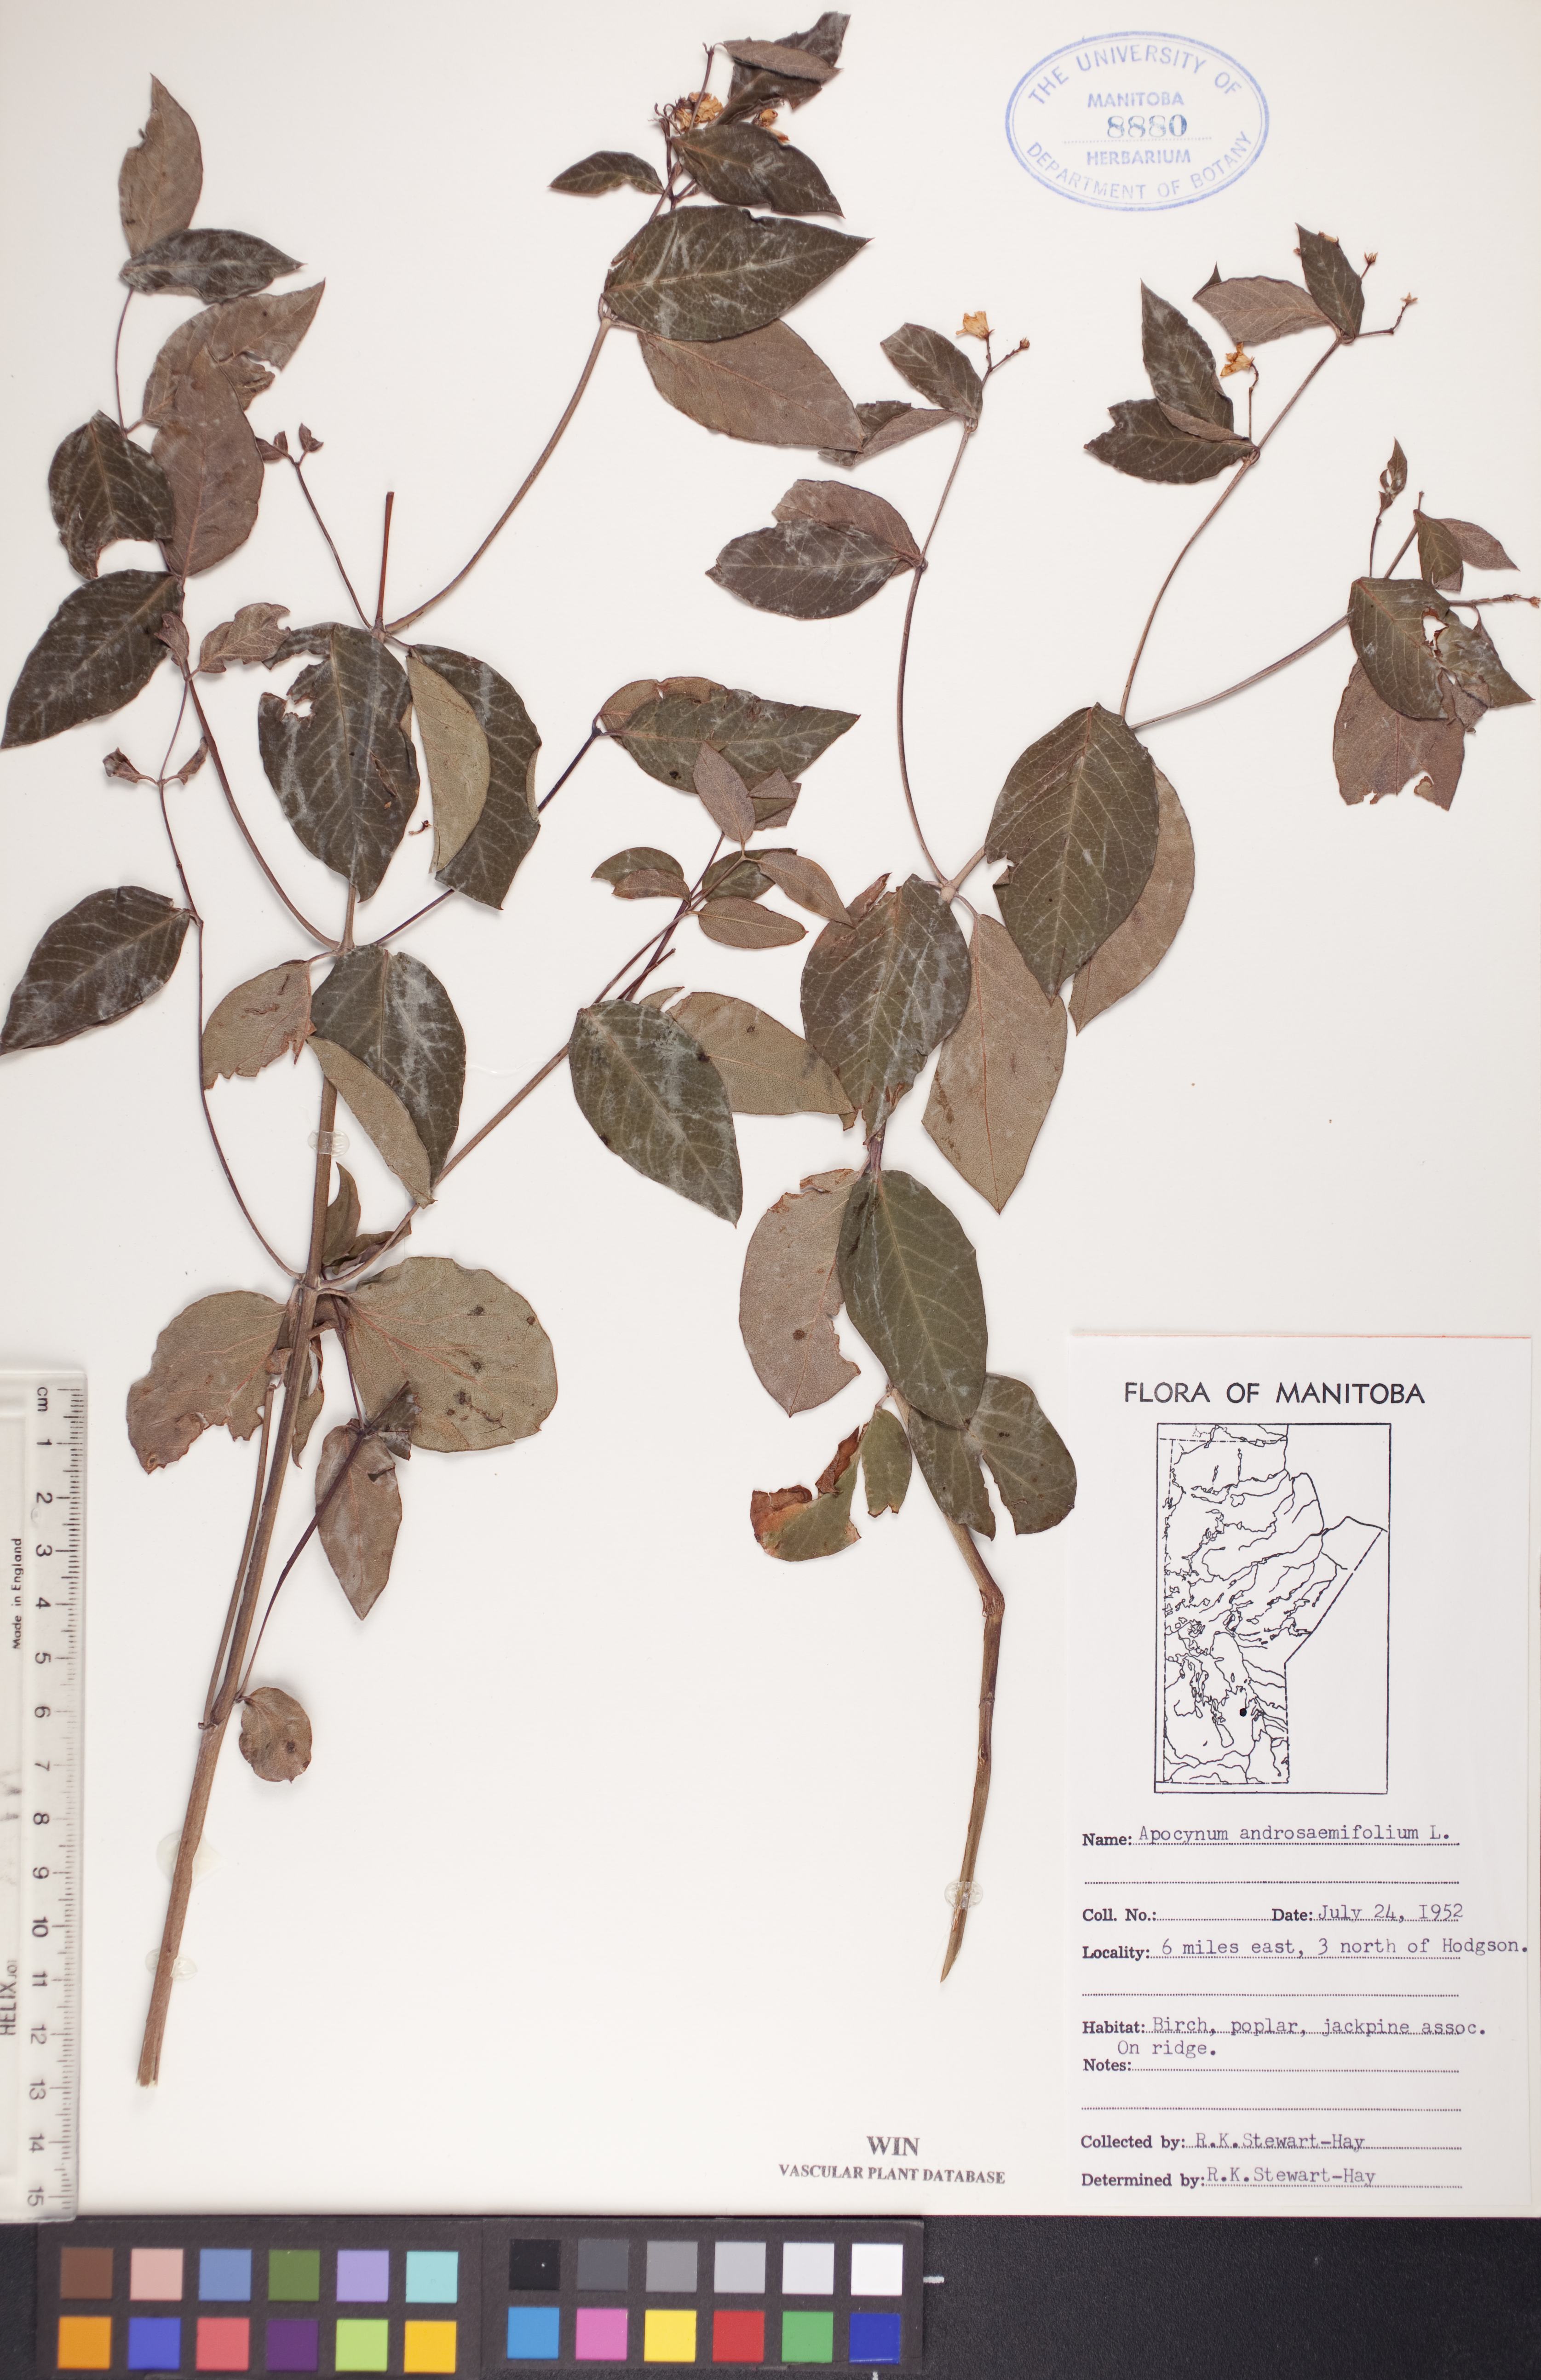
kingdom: Plantae
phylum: Tracheophyta
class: Magnoliopsida
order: Gentianales
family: Apocynaceae
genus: Apocynum
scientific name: Apocynum androsaemifolium
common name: Spreading dogbane
